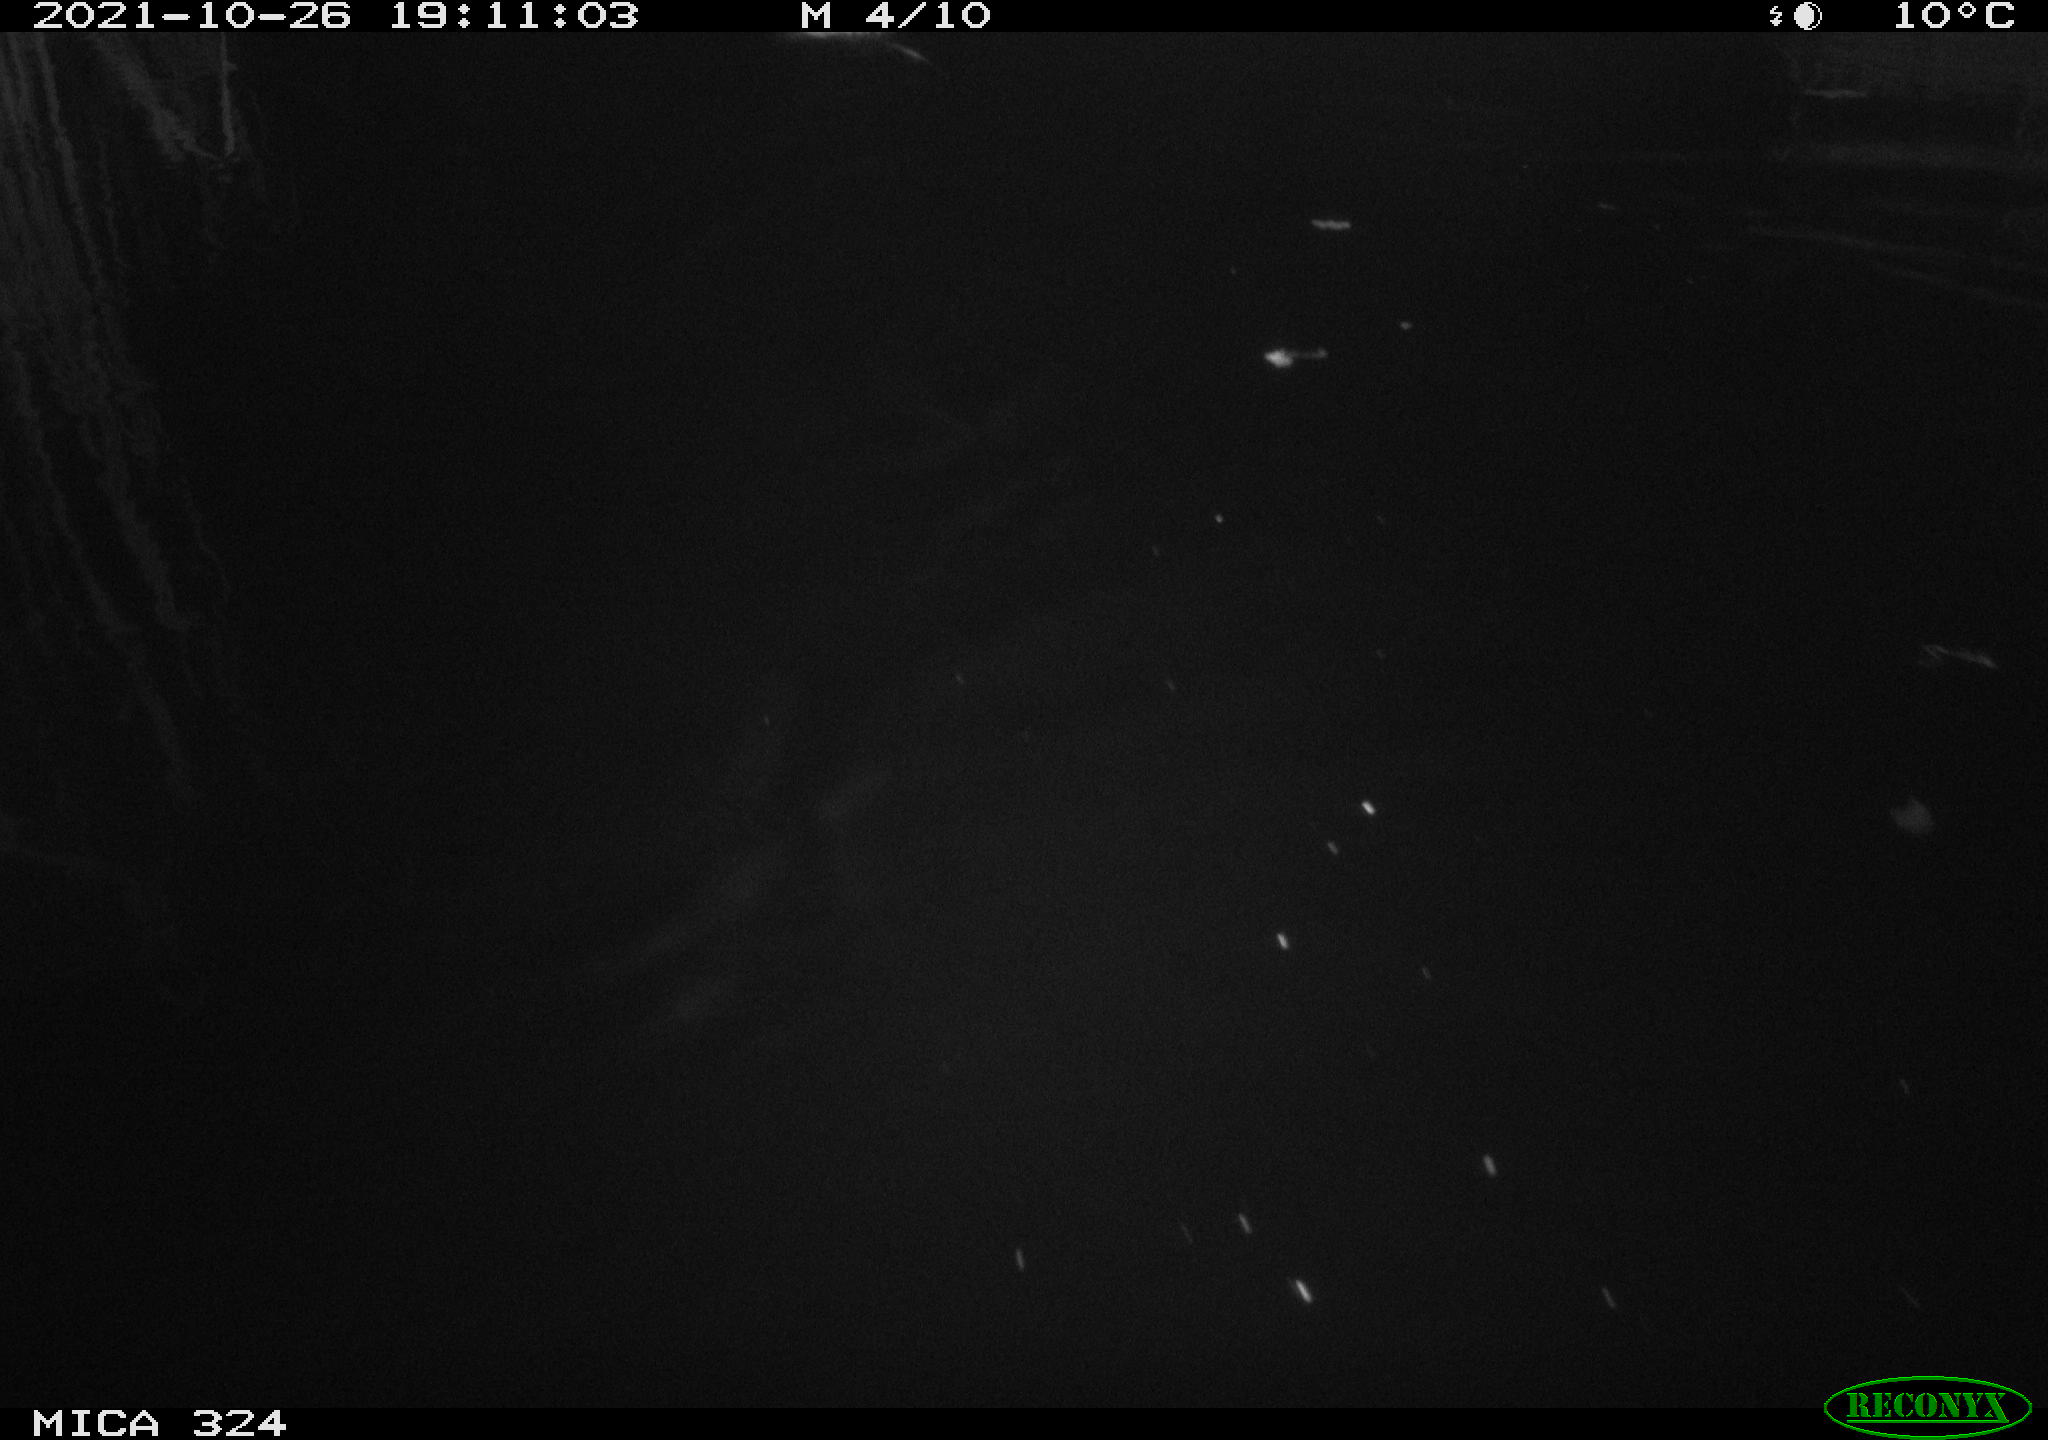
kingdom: Animalia
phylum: Chordata
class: Mammalia
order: Rodentia
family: Cricetidae
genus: Ondatra
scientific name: Ondatra zibethicus
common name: Muskrat
